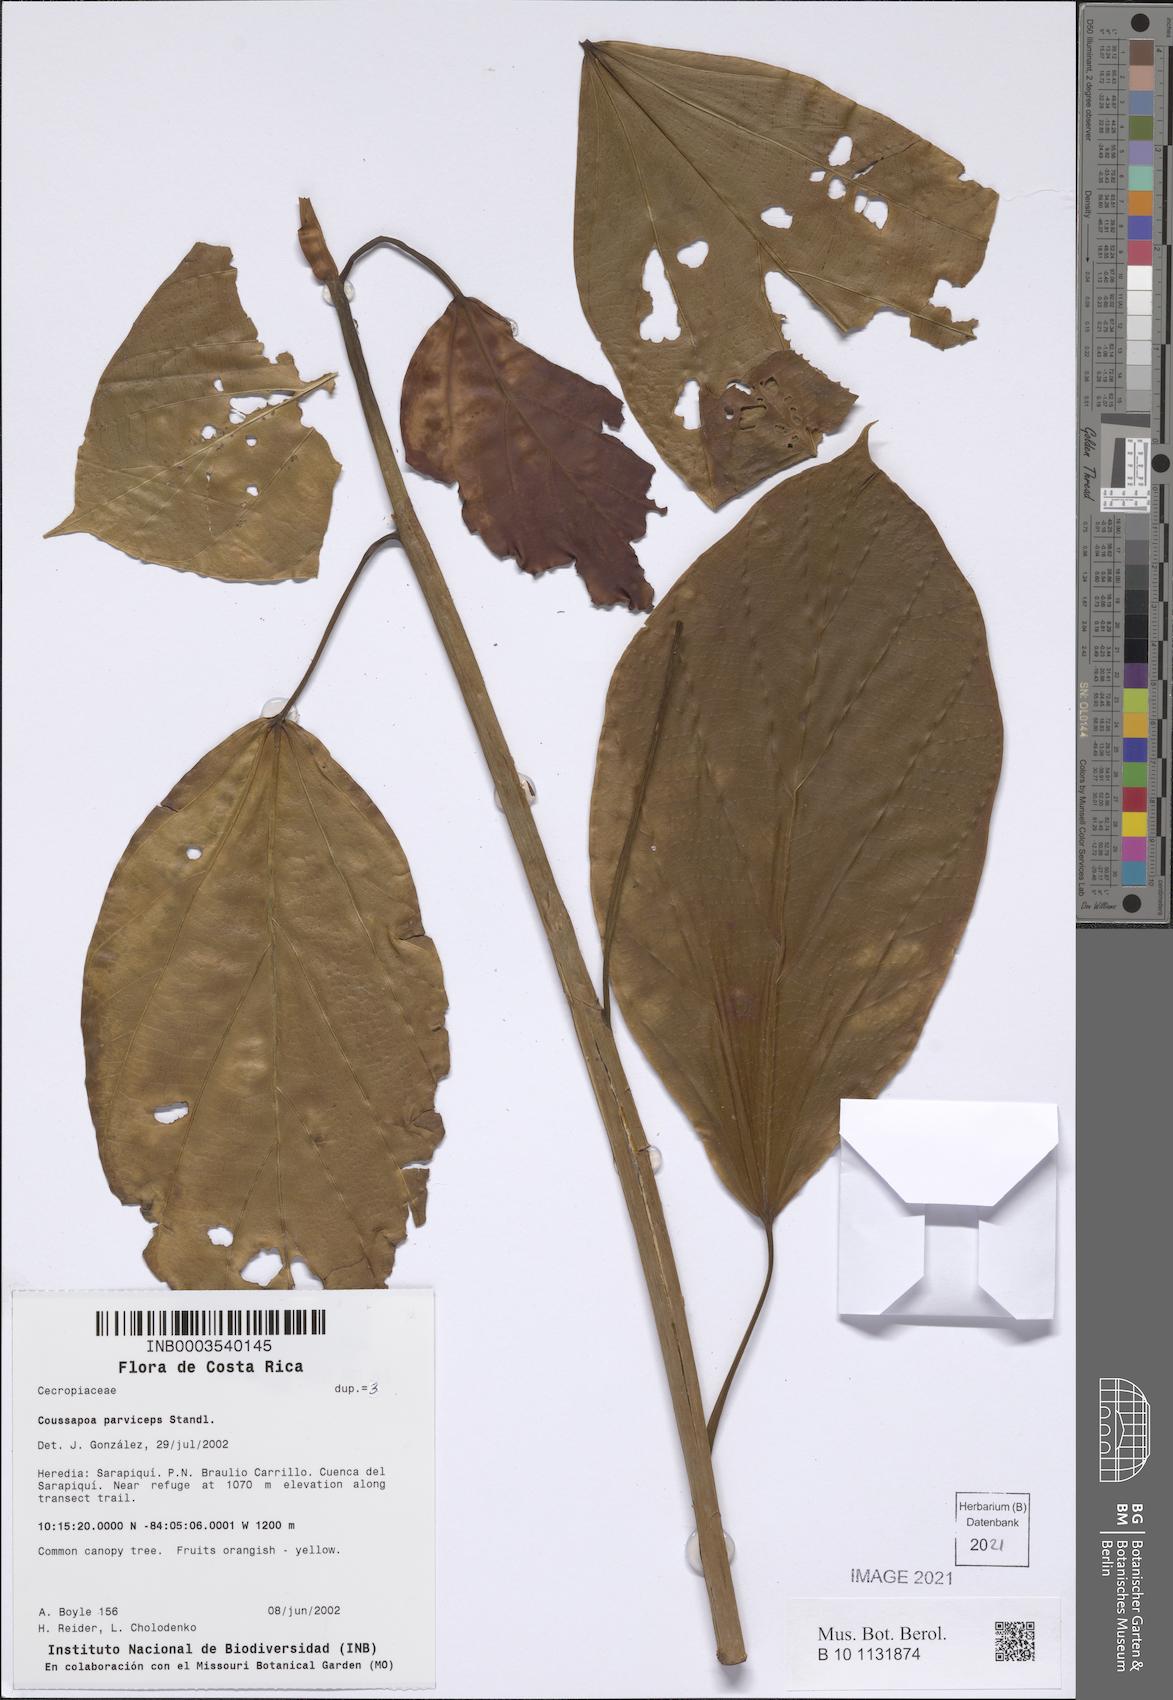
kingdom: Plantae
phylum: Tracheophyta
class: Magnoliopsida
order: Rosales
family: Urticaceae
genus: Coussapoa
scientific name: Coussapoa parviceps
